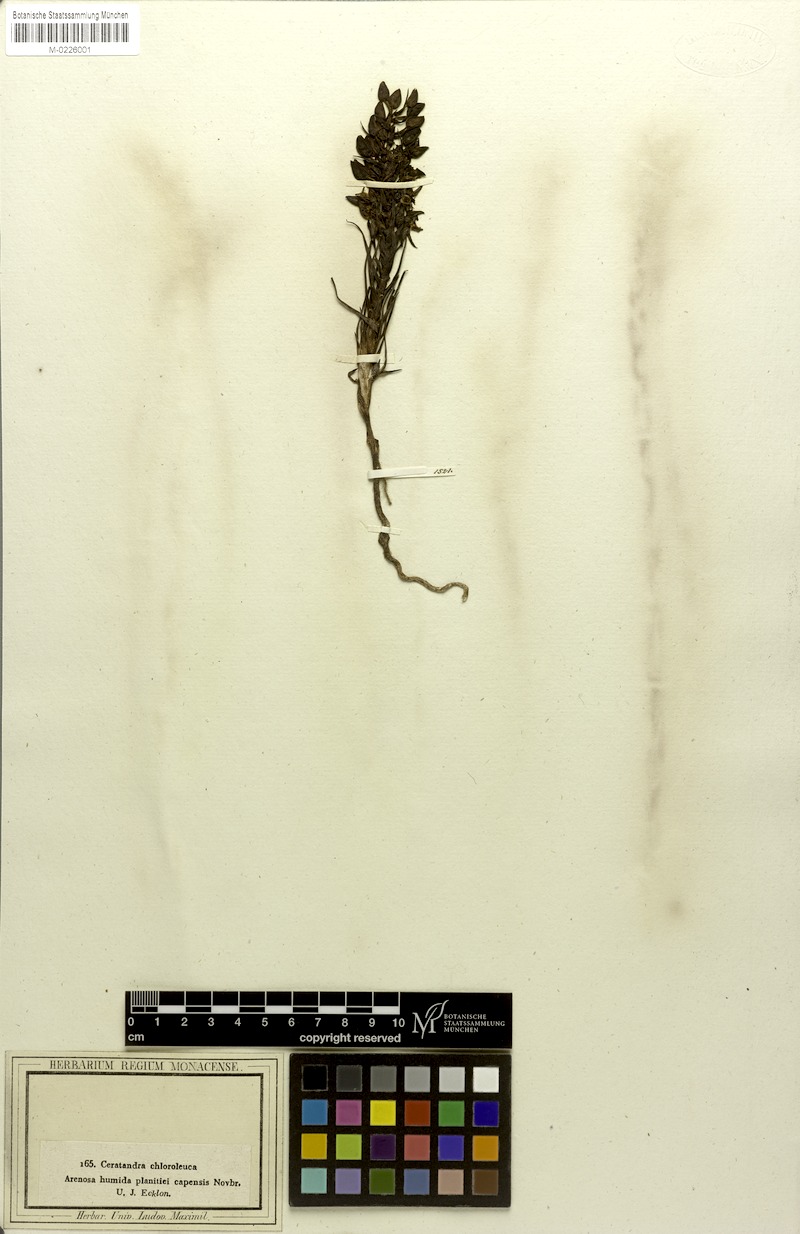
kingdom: Plantae
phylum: Tracheophyta
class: Liliopsida
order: Asparagales
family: Orchidaceae
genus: Ceratandra
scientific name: Ceratandra atrata
